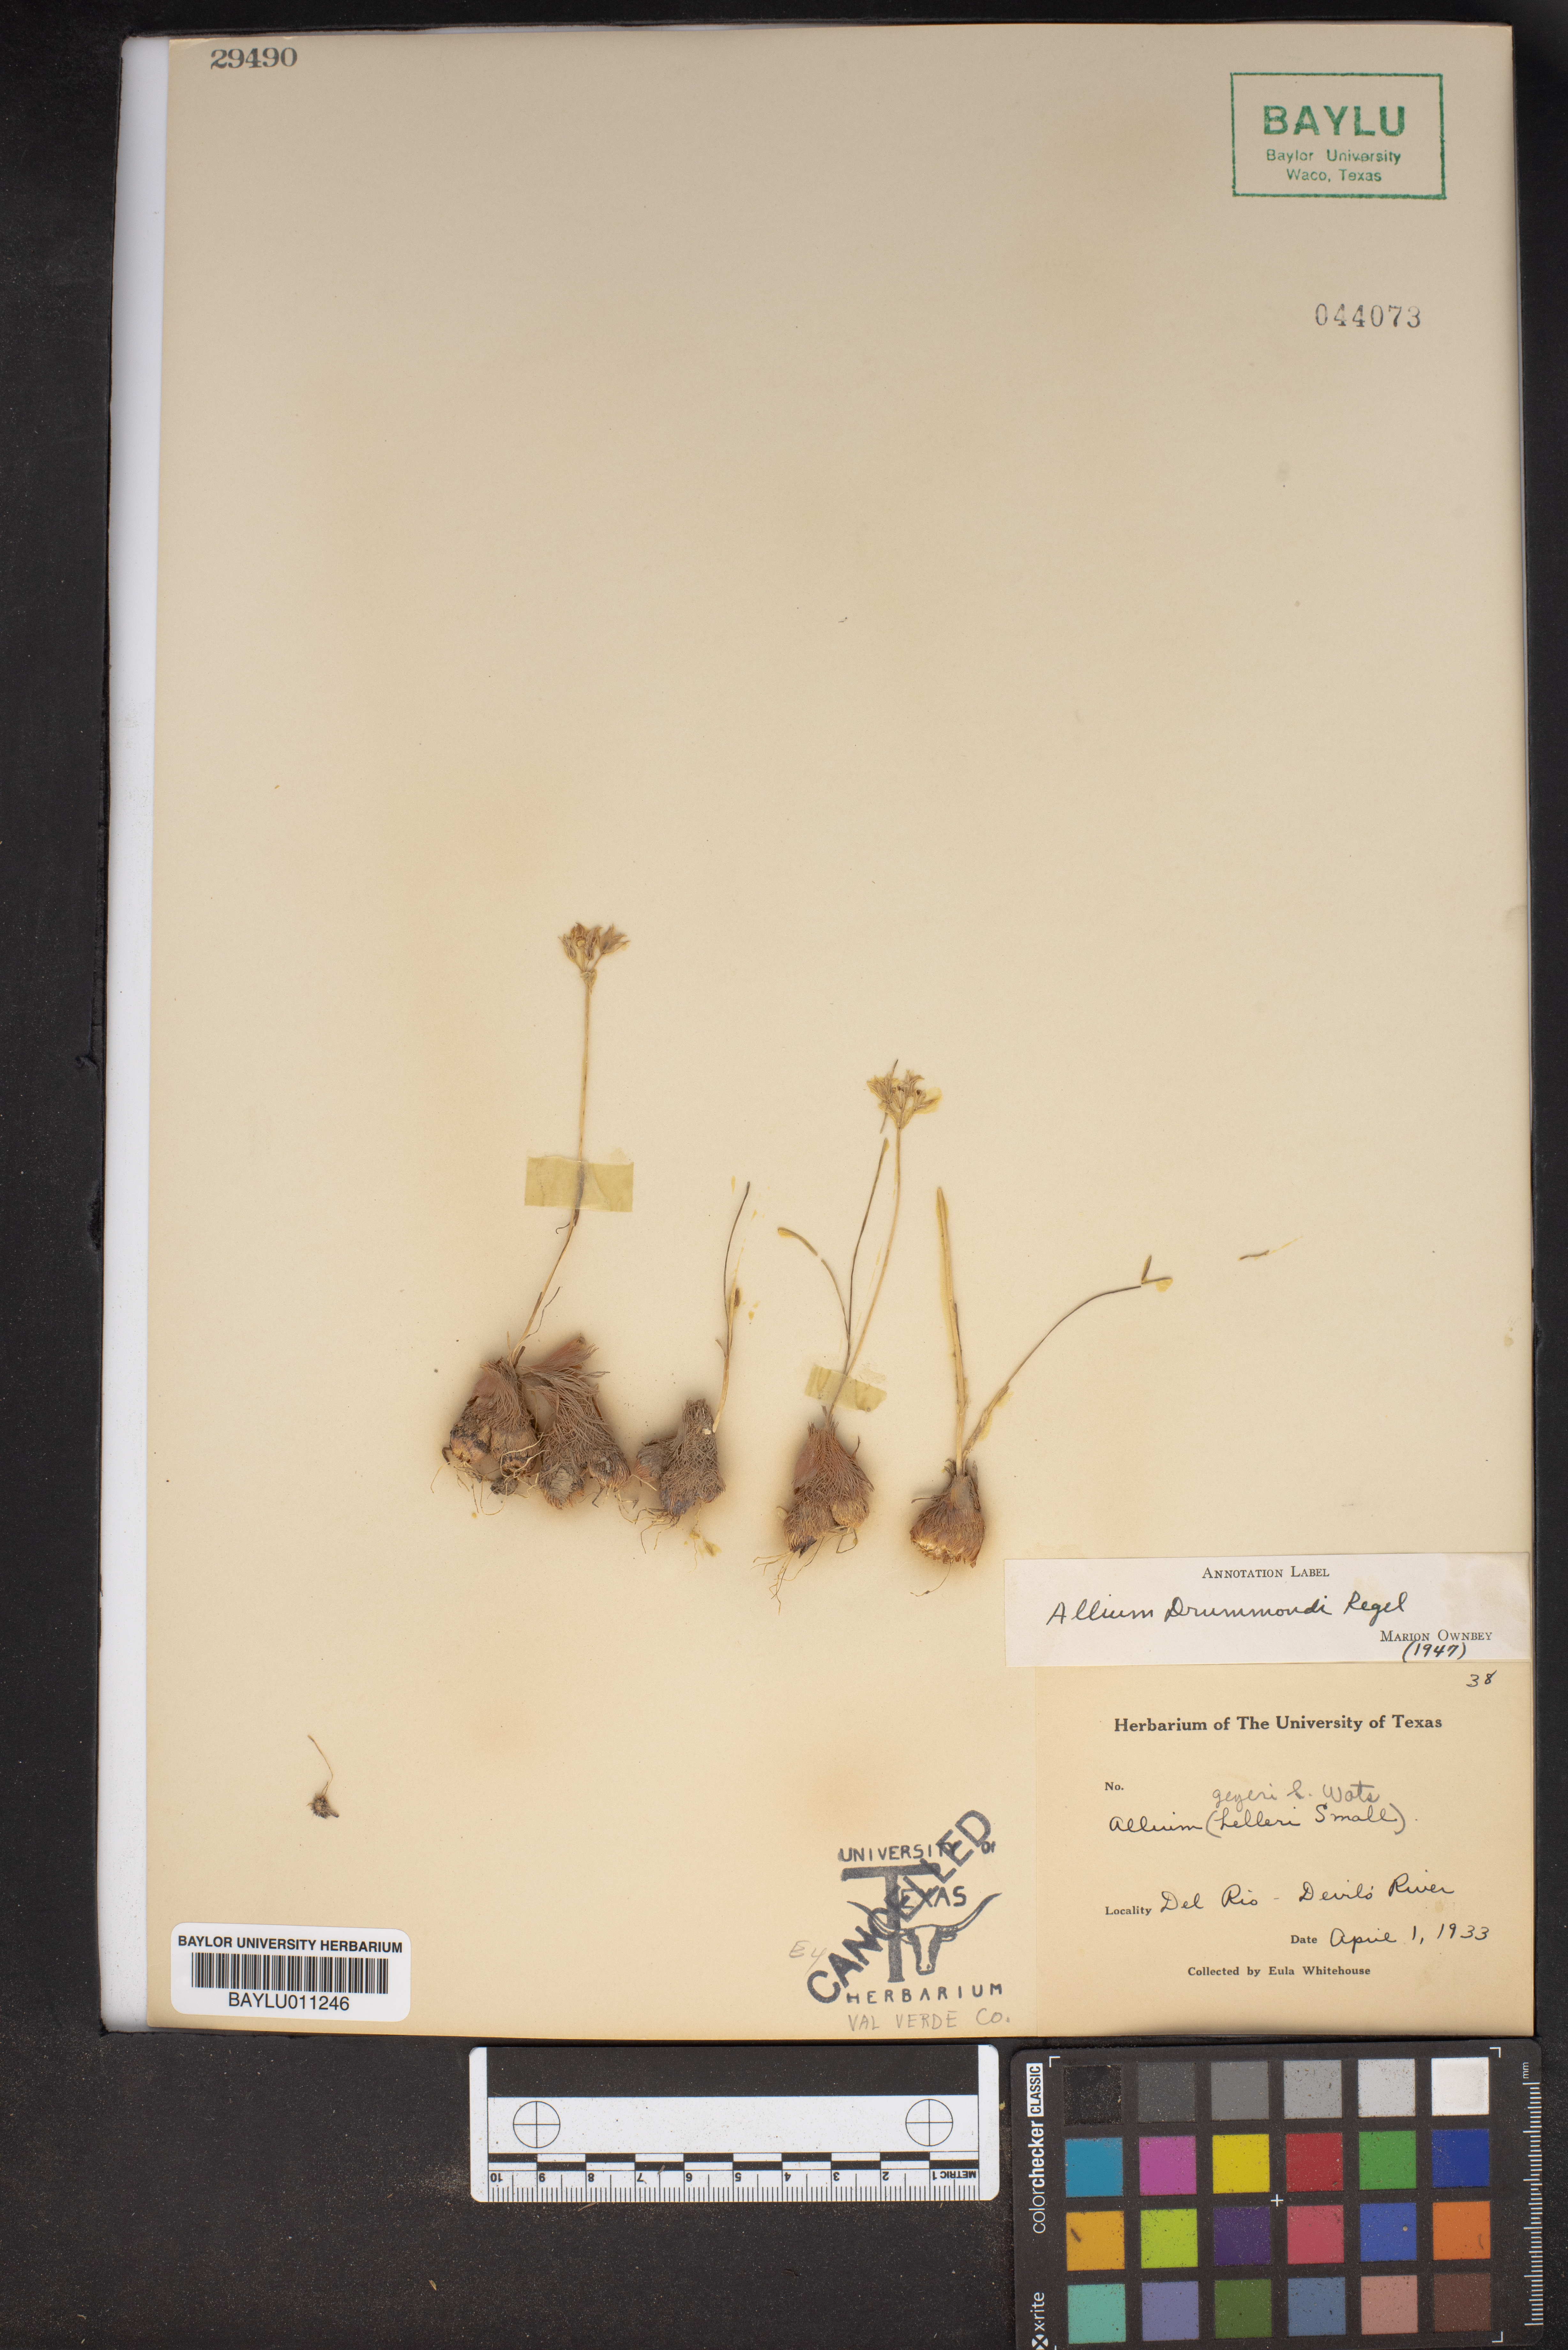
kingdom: Plantae
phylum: Tracheophyta
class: Liliopsida
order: Asparagales
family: Amaryllidaceae
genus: Allium
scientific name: Allium drummondii
